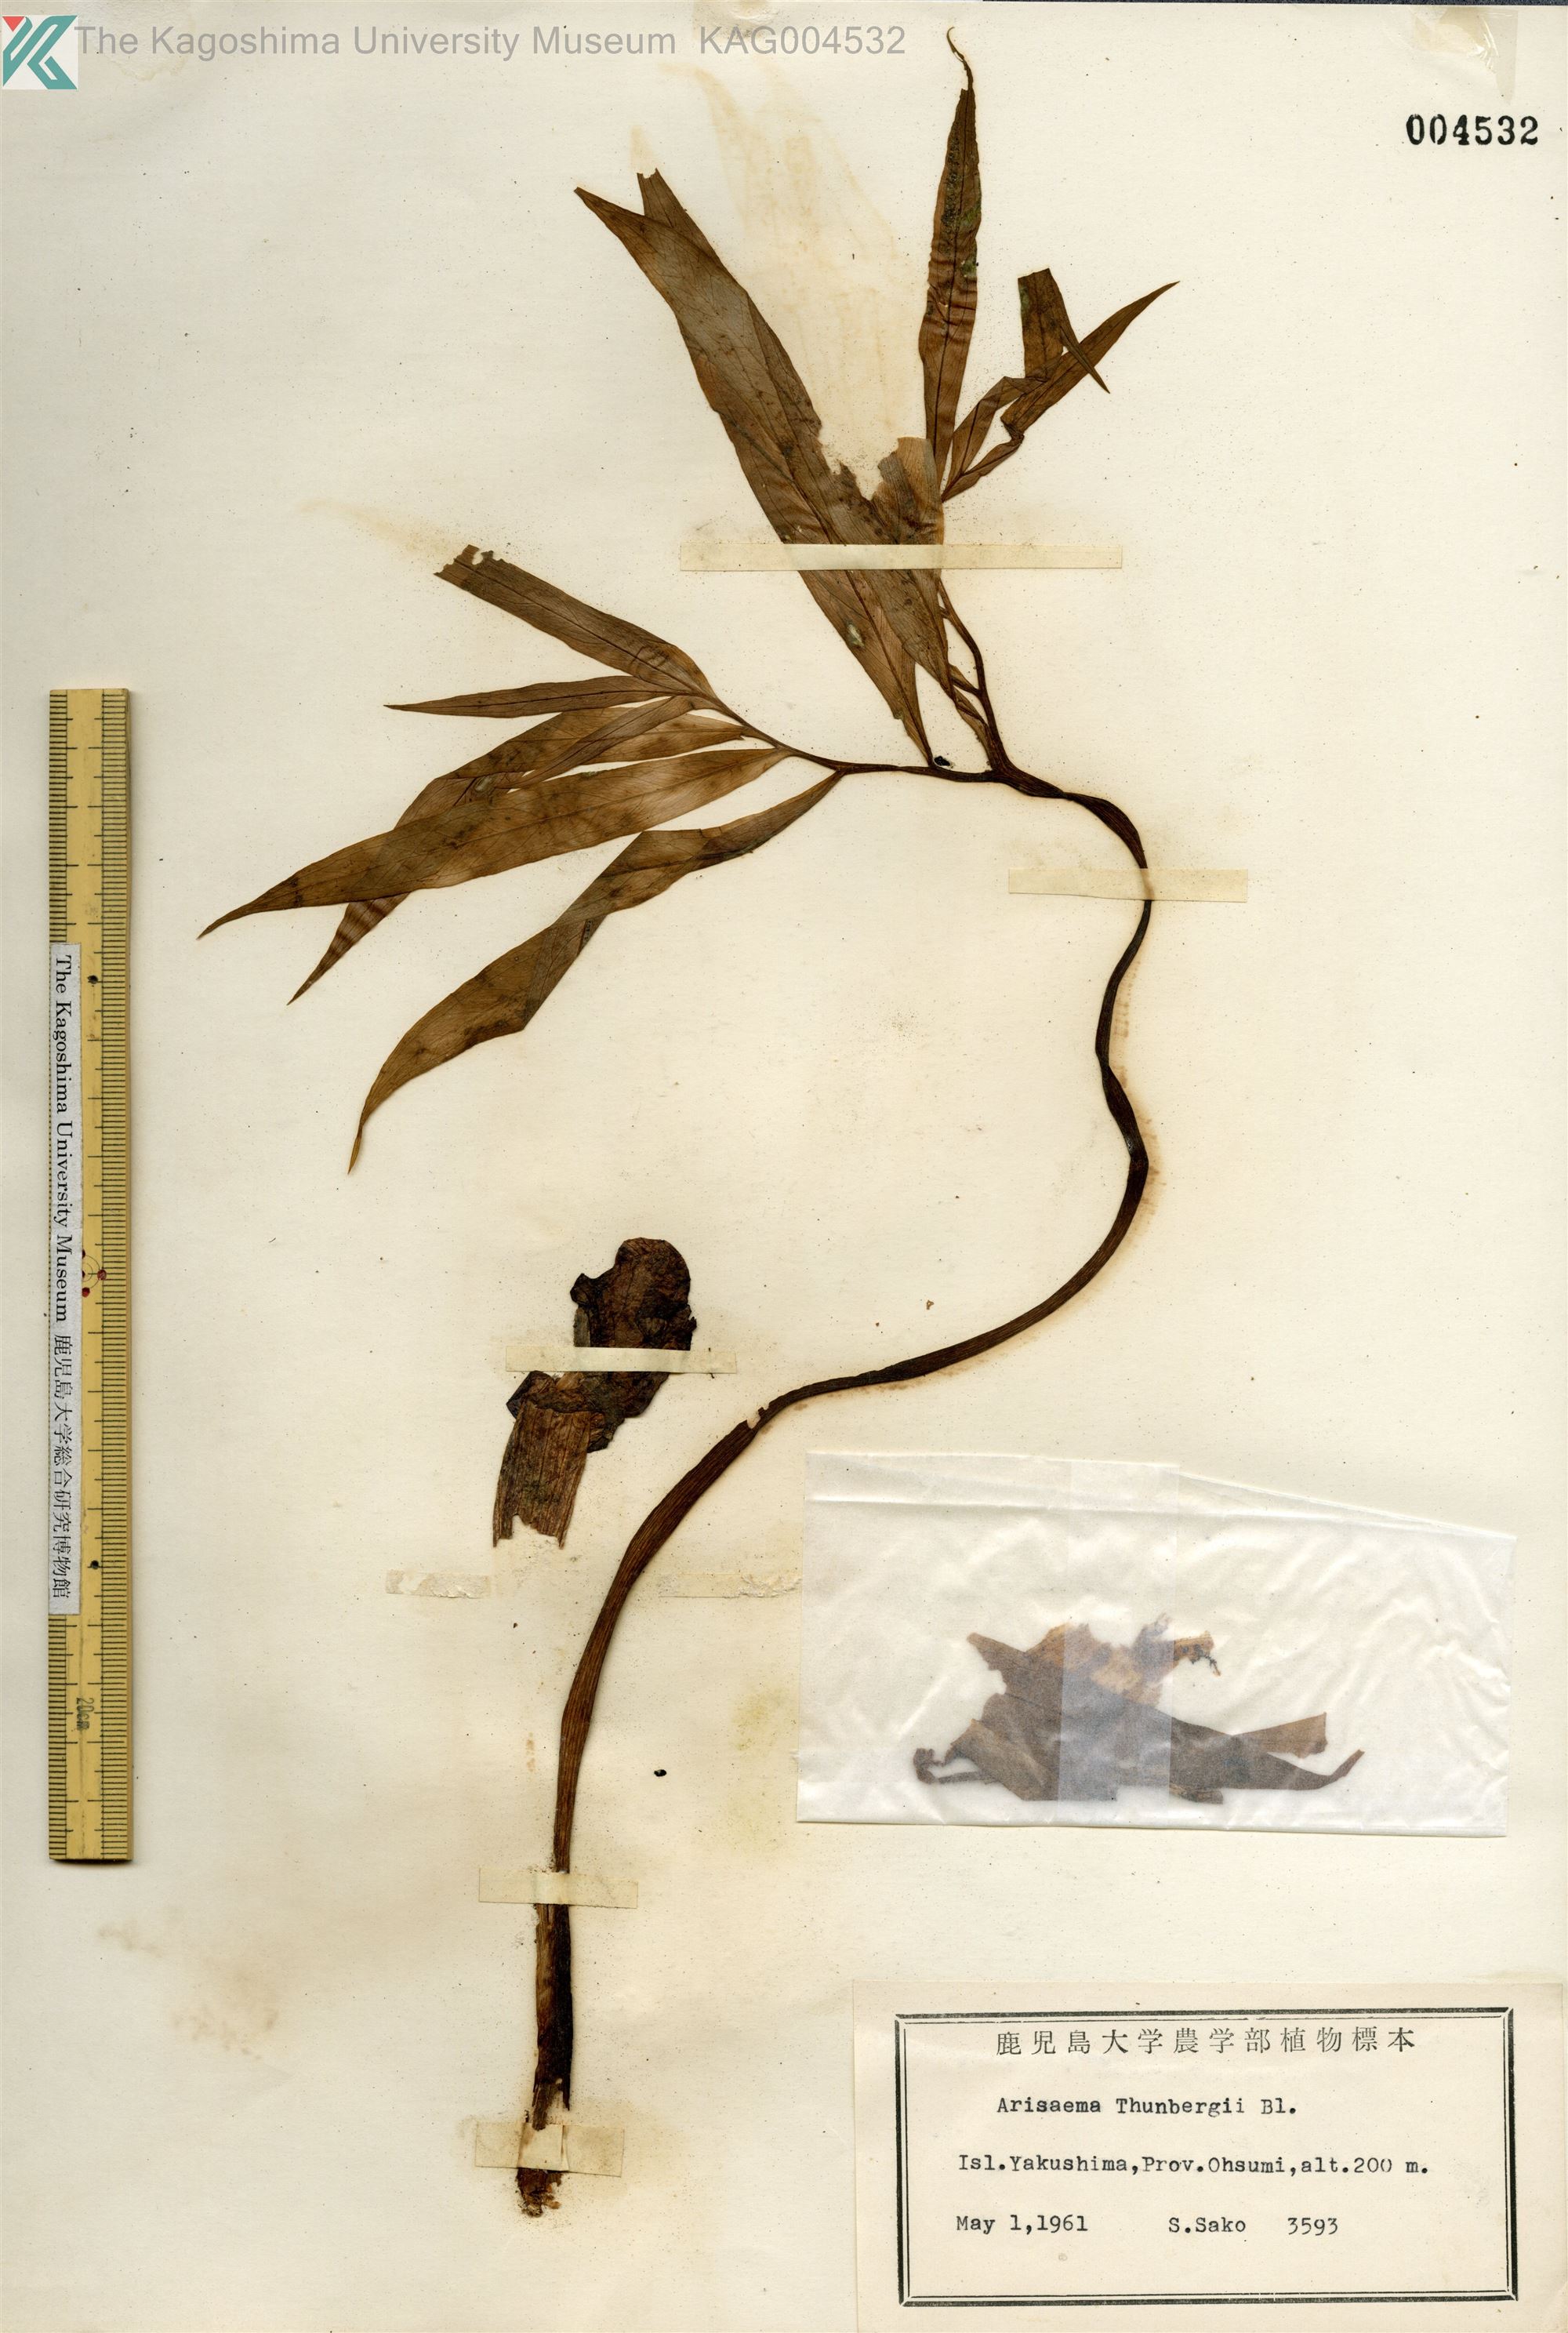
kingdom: Plantae
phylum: Tracheophyta
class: Liliopsida
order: Alismatales
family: Araceae
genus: Arisaema
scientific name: Arisaema thunbergii
